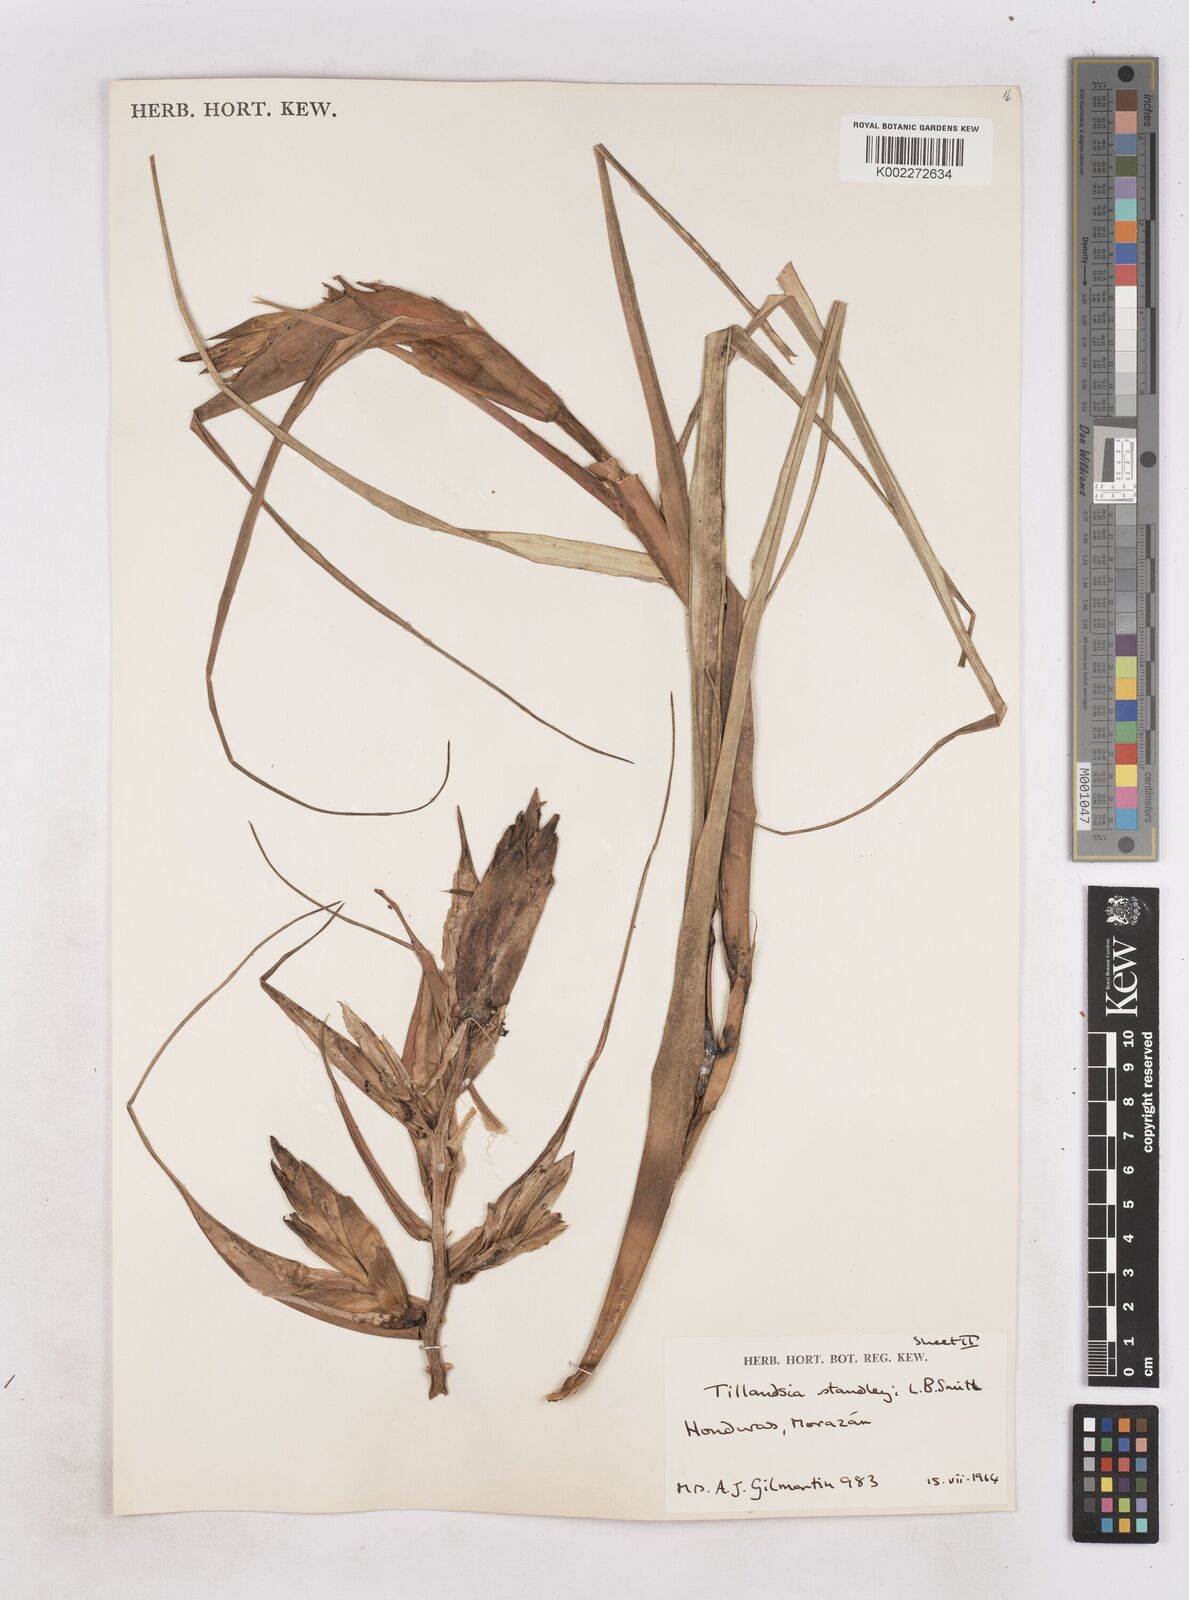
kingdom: Plantae
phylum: Tracheophyta
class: Liliopsida
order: Poales
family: Bromeliaceae
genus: Tillandsia
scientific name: Tillandsia standleyi
